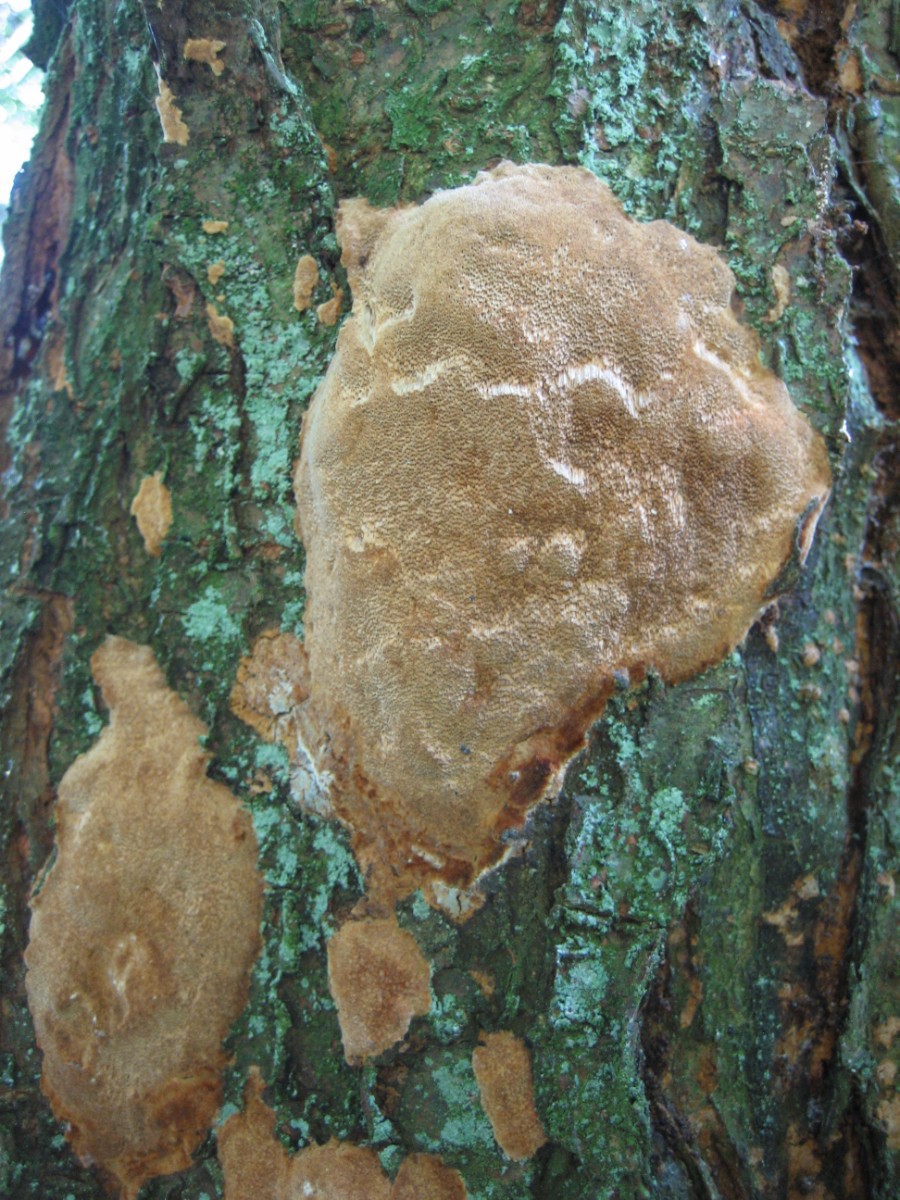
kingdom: Fungi
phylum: Basidiomycota
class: Agaricomycetes
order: Hymenochaetales
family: Hymenochaetaceae
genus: Phellinus
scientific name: Phellinus pomaceus
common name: blomme-ildporesvamp
